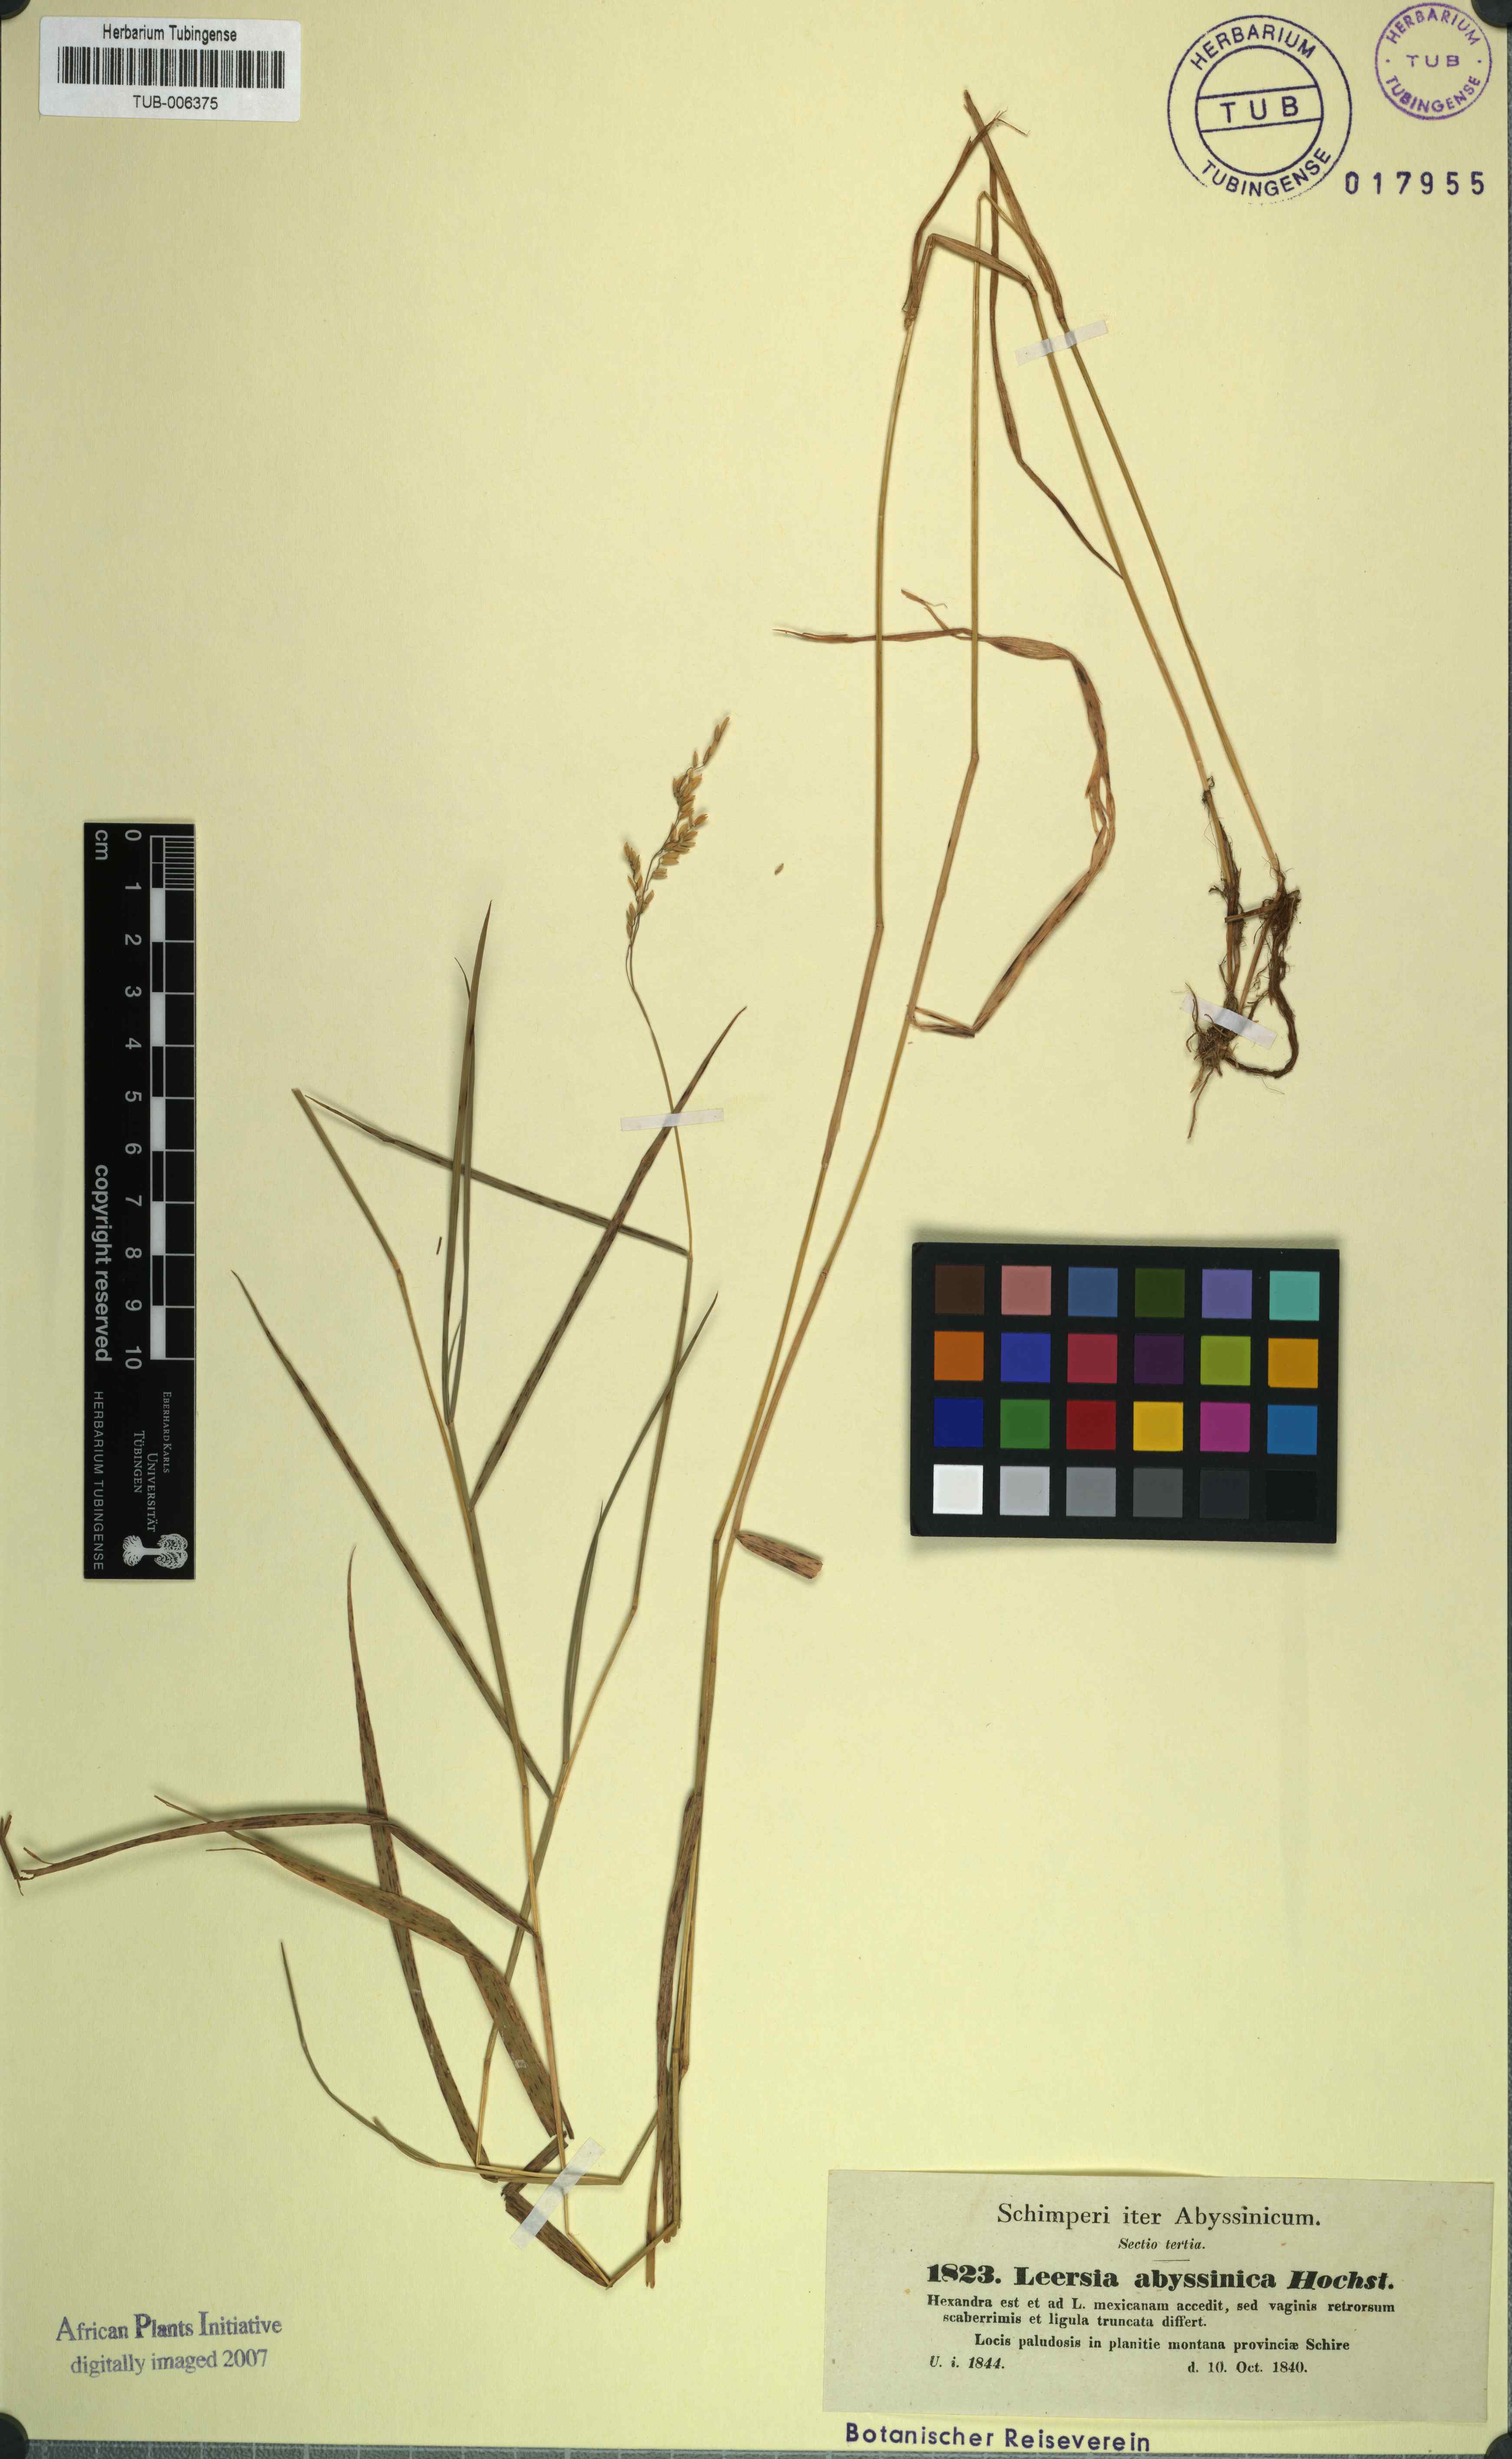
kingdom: Plantae
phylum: Tracheophyta
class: Liliopsida
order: Poales
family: Poaceae
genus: Leersia
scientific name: Leersia hexandra
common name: Southern cut grass
